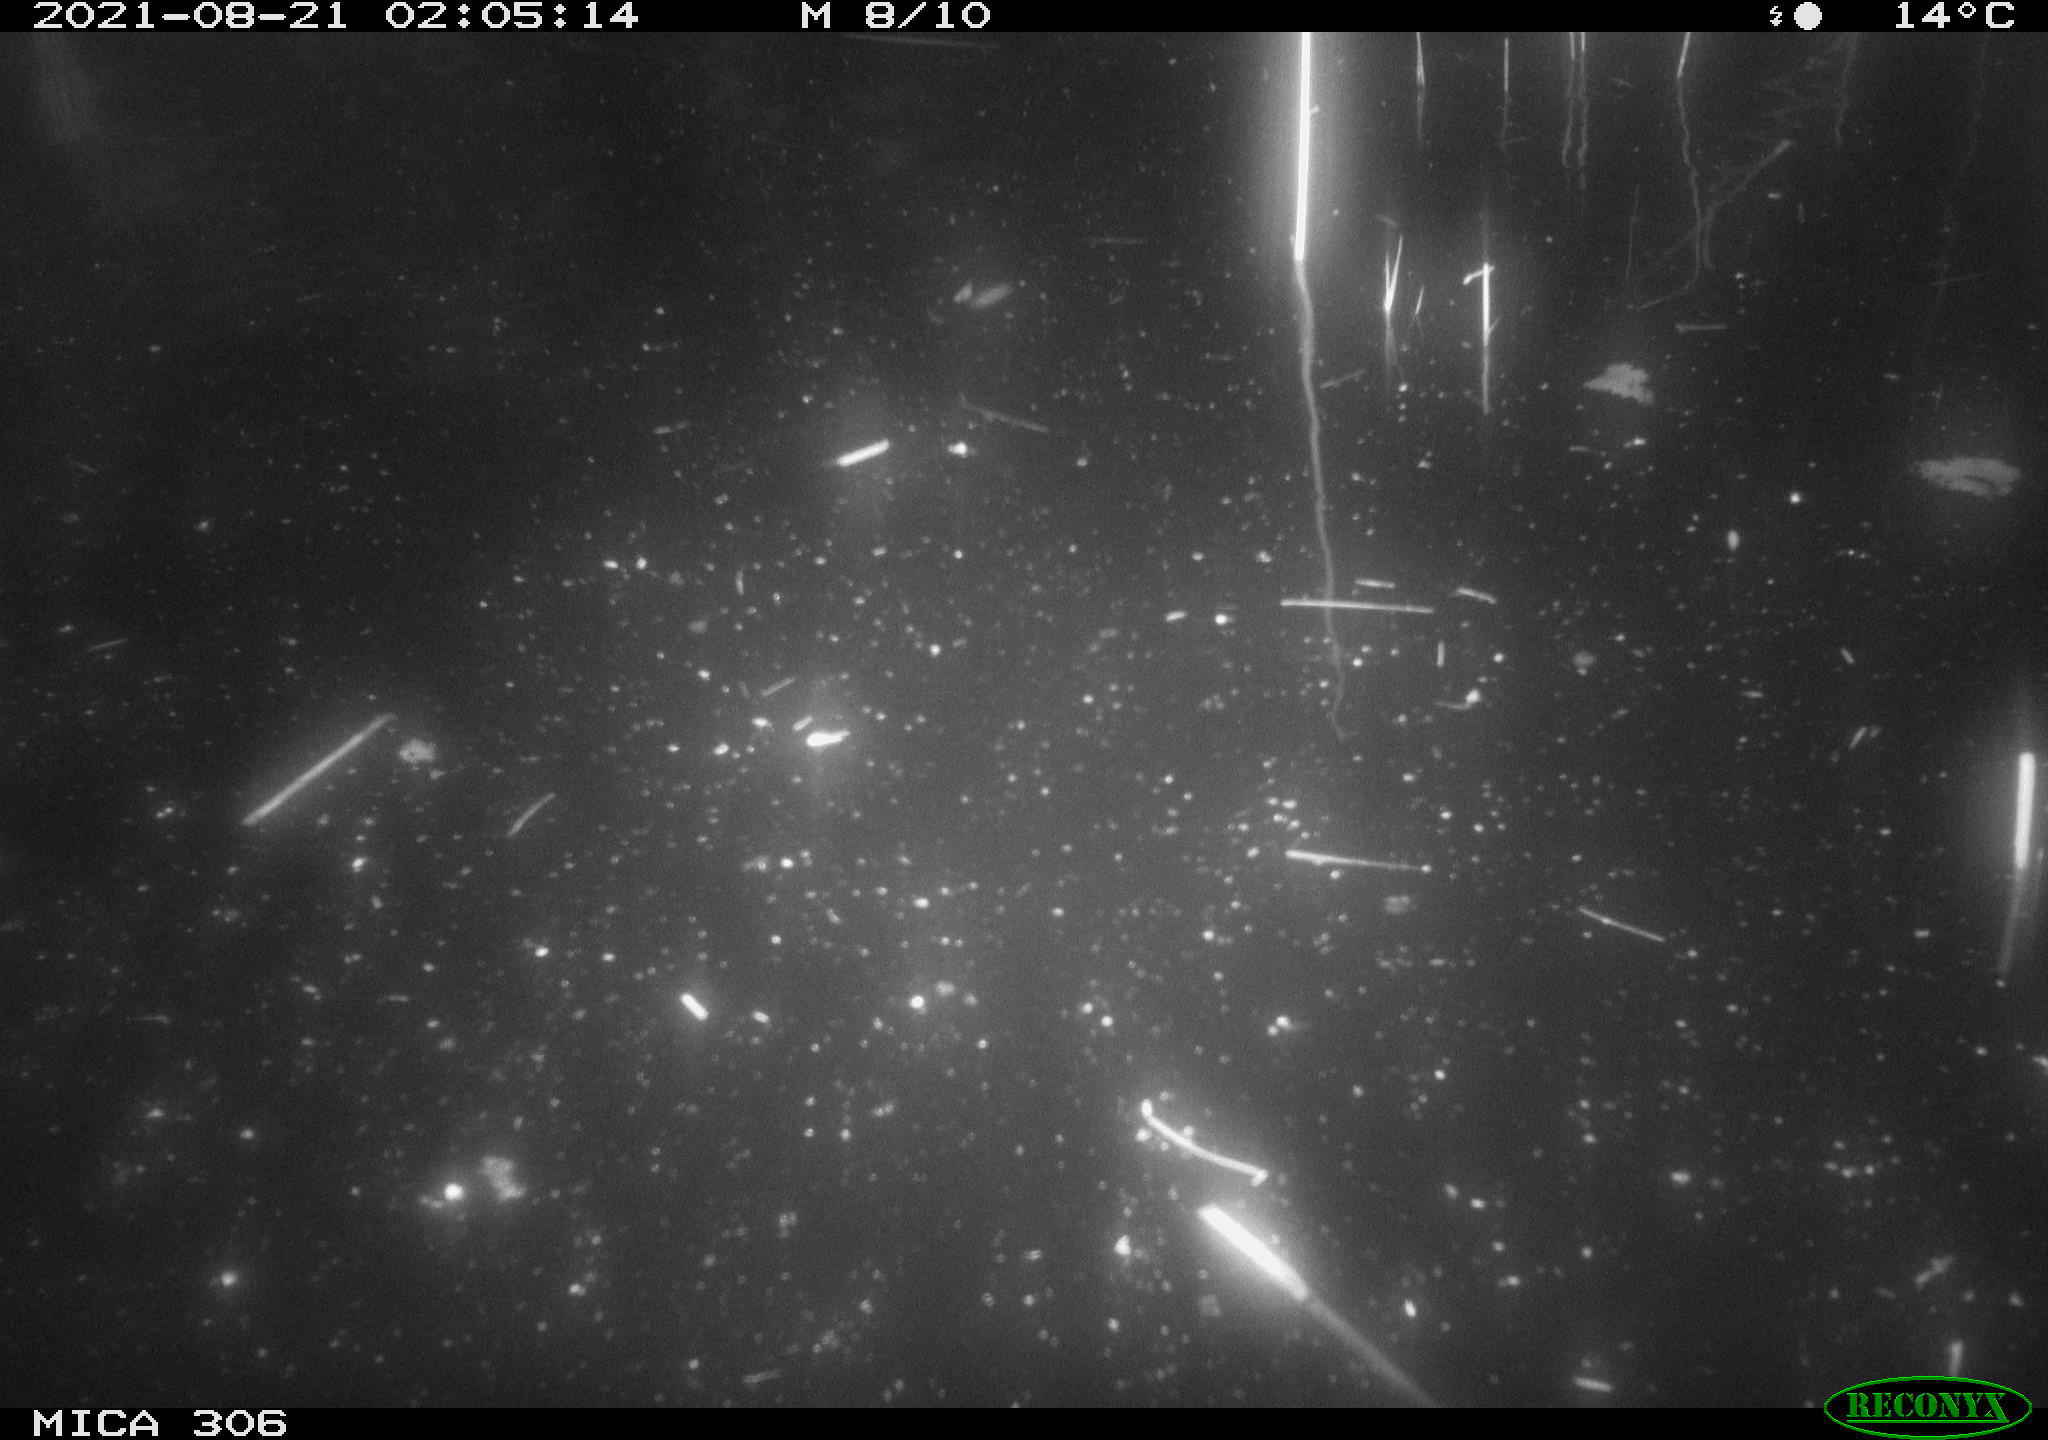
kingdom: Animalia
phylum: Chordata
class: Mammalia
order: Rodentia
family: Cricetidae
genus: Ondatra
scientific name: Ondatra zibethicus
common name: Muskrat
